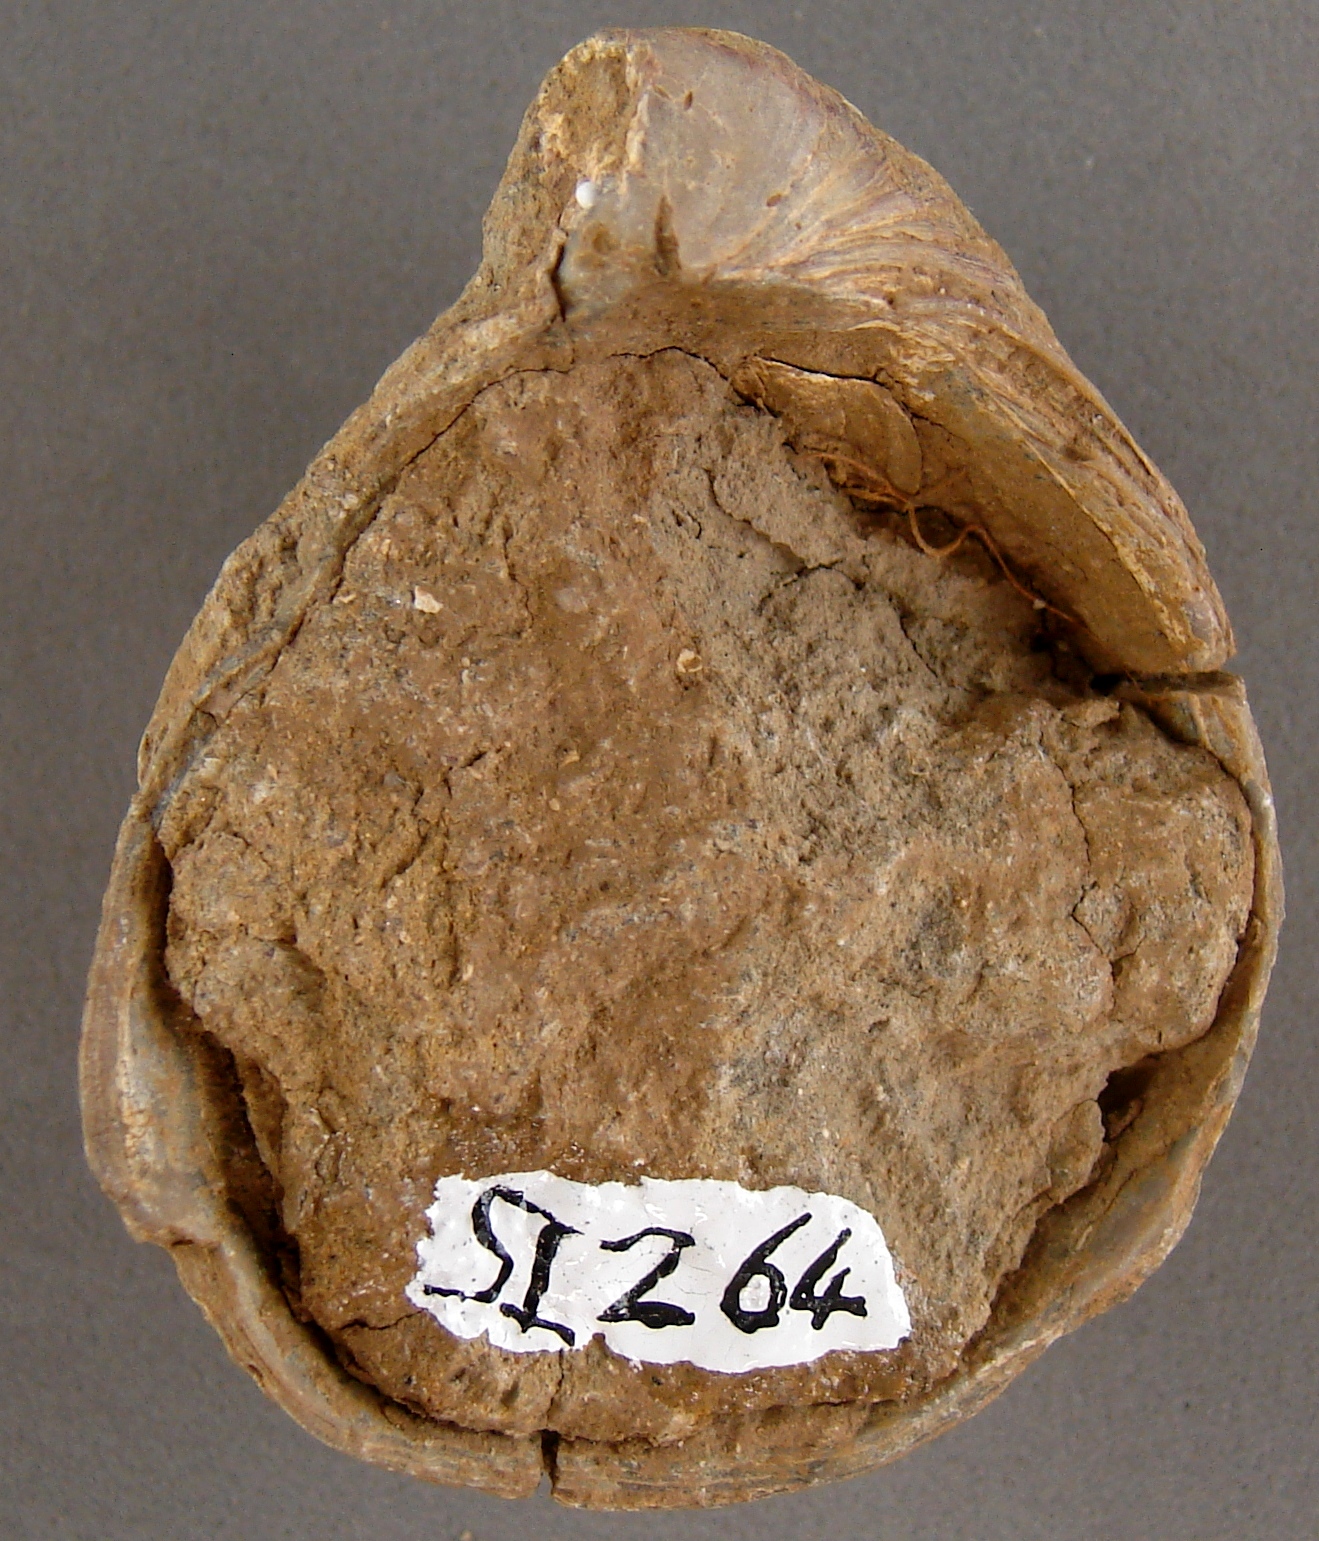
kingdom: Animalia
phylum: Mollusca
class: Bivalvia
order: Ostreida
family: Gryphaeidae
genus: Gryphaea
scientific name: Gryphaea arcuata
